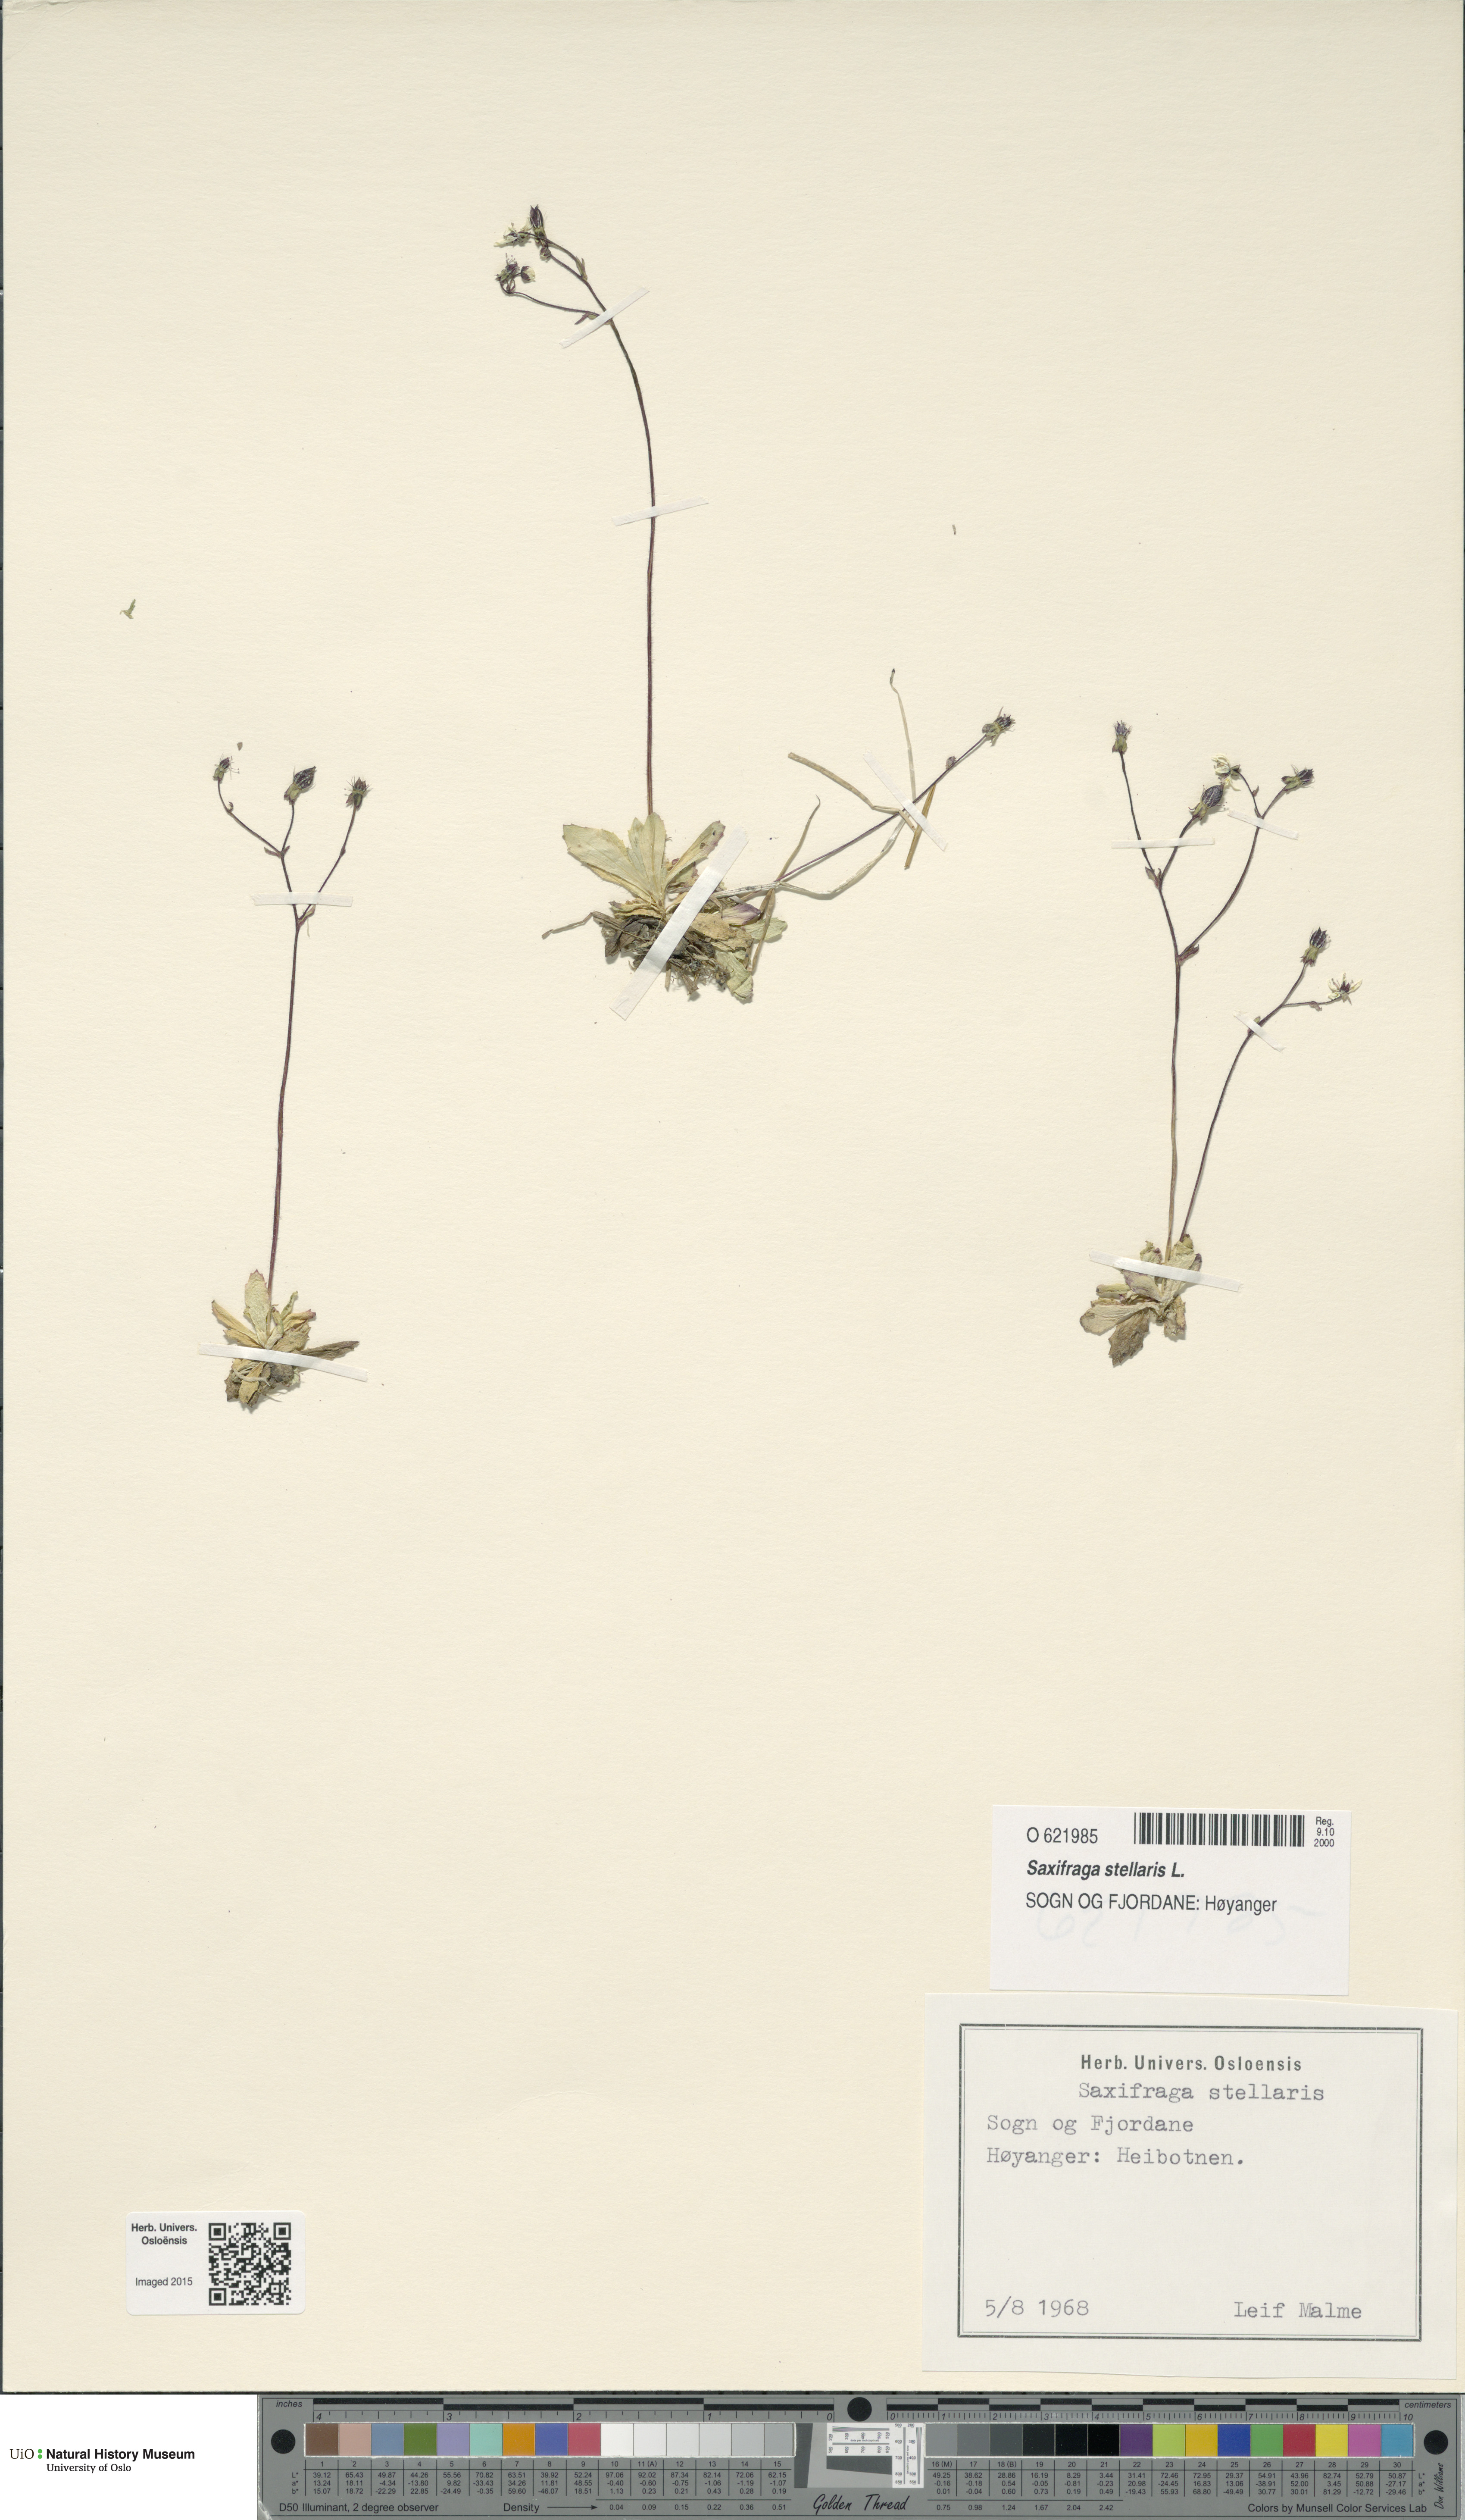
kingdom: Plantae
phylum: Tracheophyta
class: Magnoliopsida
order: Saxifragales
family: Saxifragaceae
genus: Micranthes
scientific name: Micranthes stellaris
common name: Starry saxifrage
